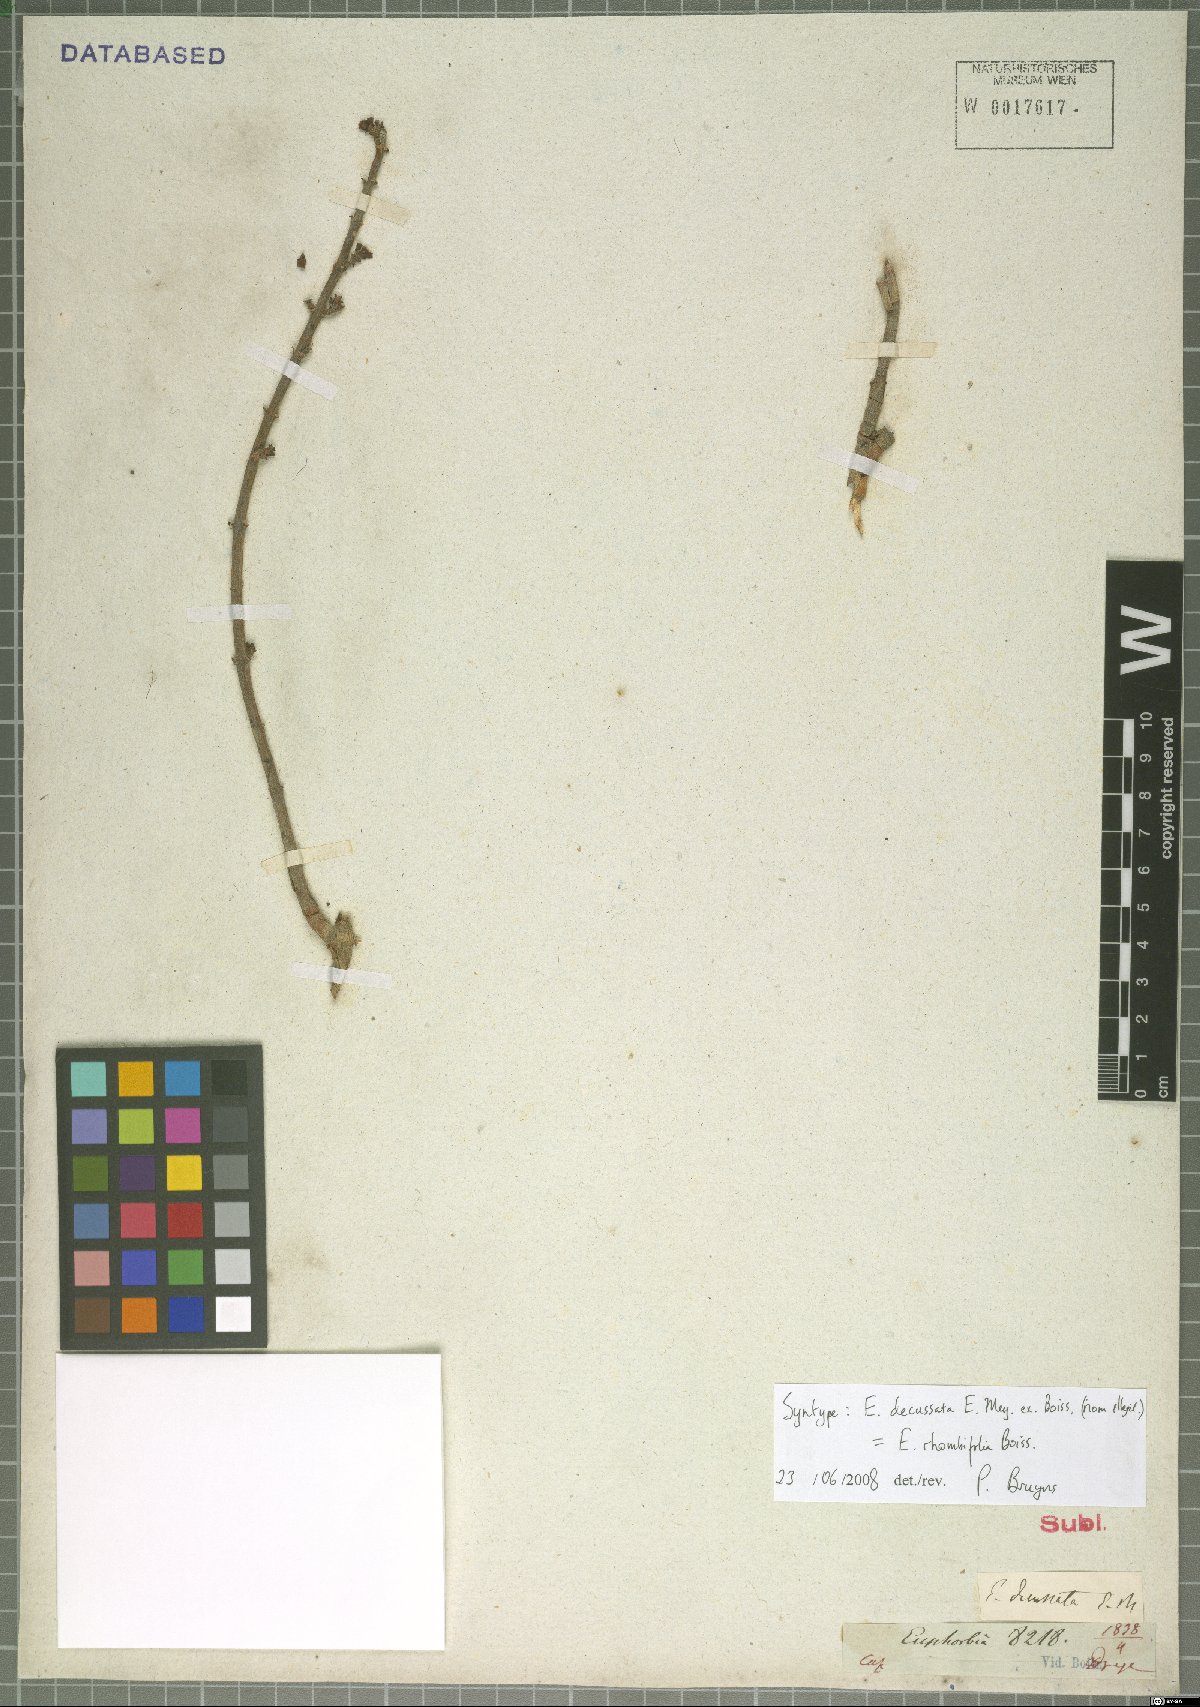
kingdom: Plantae
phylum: Tracheophyta
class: Magnoliopsida
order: Malpighiales
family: Euphorbiaceae
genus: Euphorbia
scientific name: Euphorbia rhombifolia
